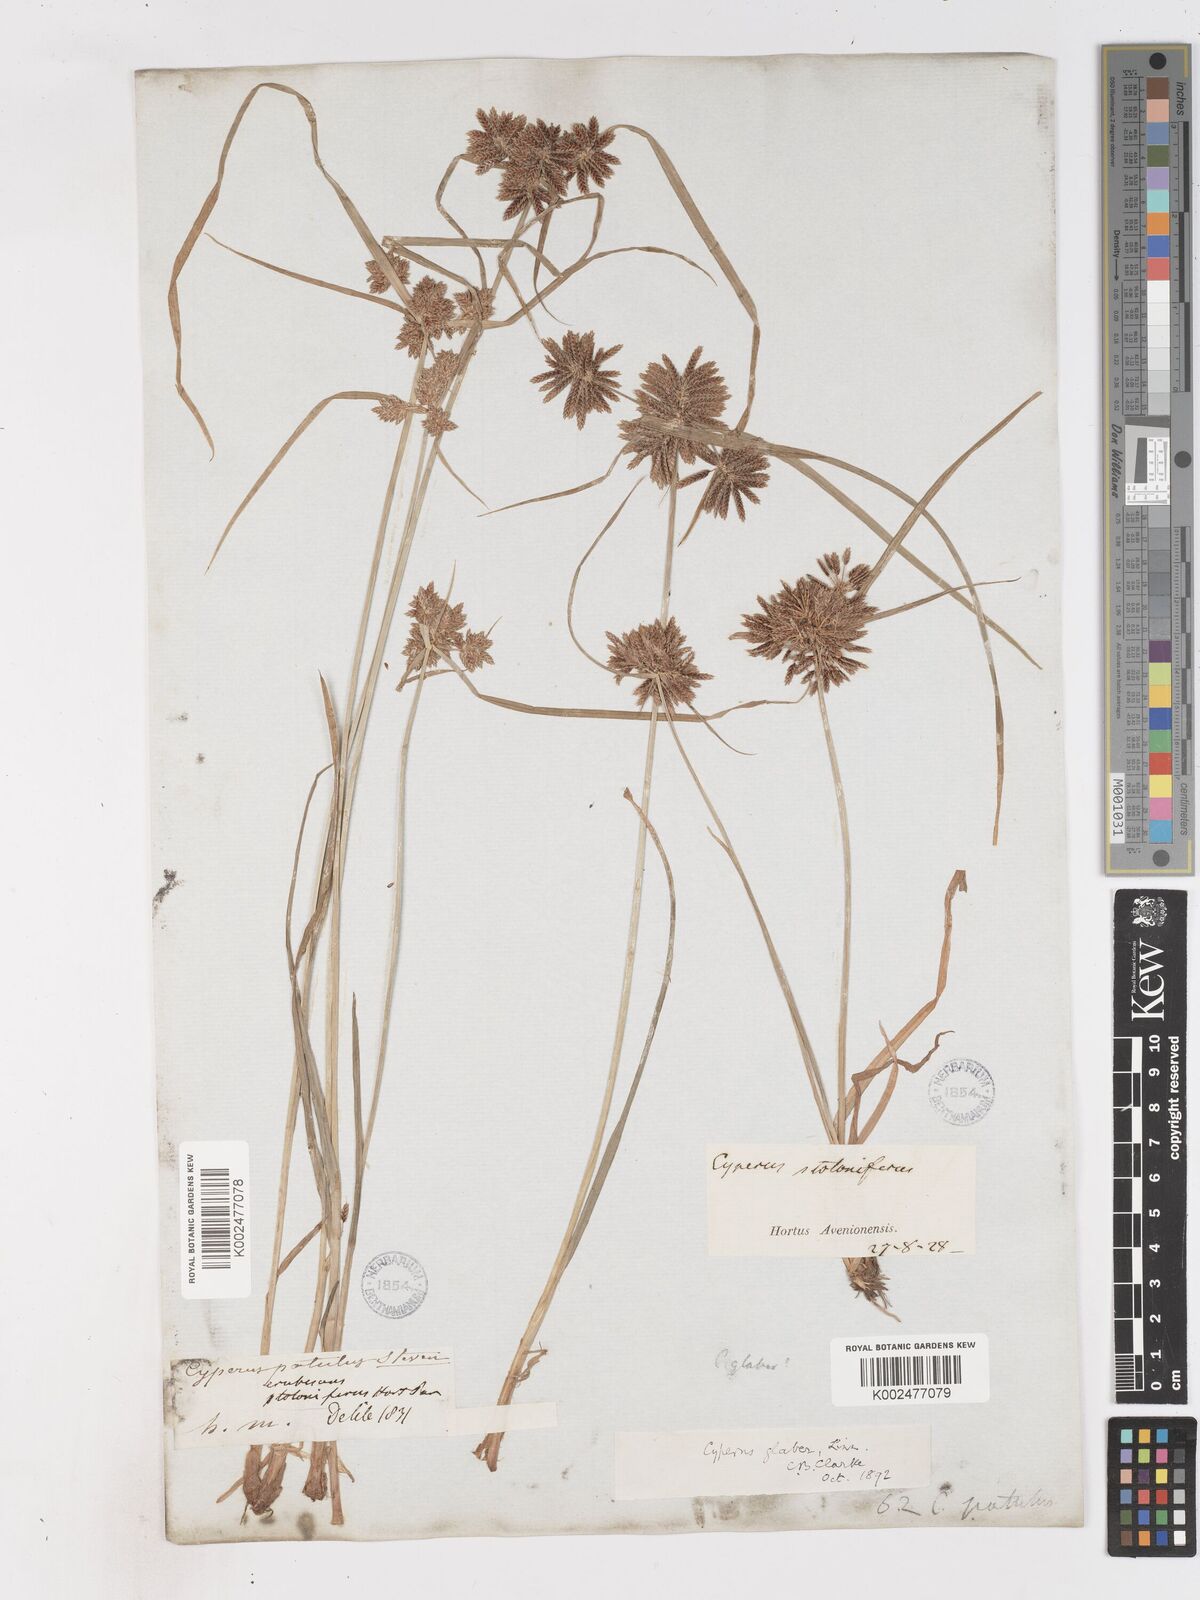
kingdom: Plantae
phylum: Tracheophyta
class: Liliopsida
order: Poales
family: Cyperaceae
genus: Cyperus
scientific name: Cyperus glaber
